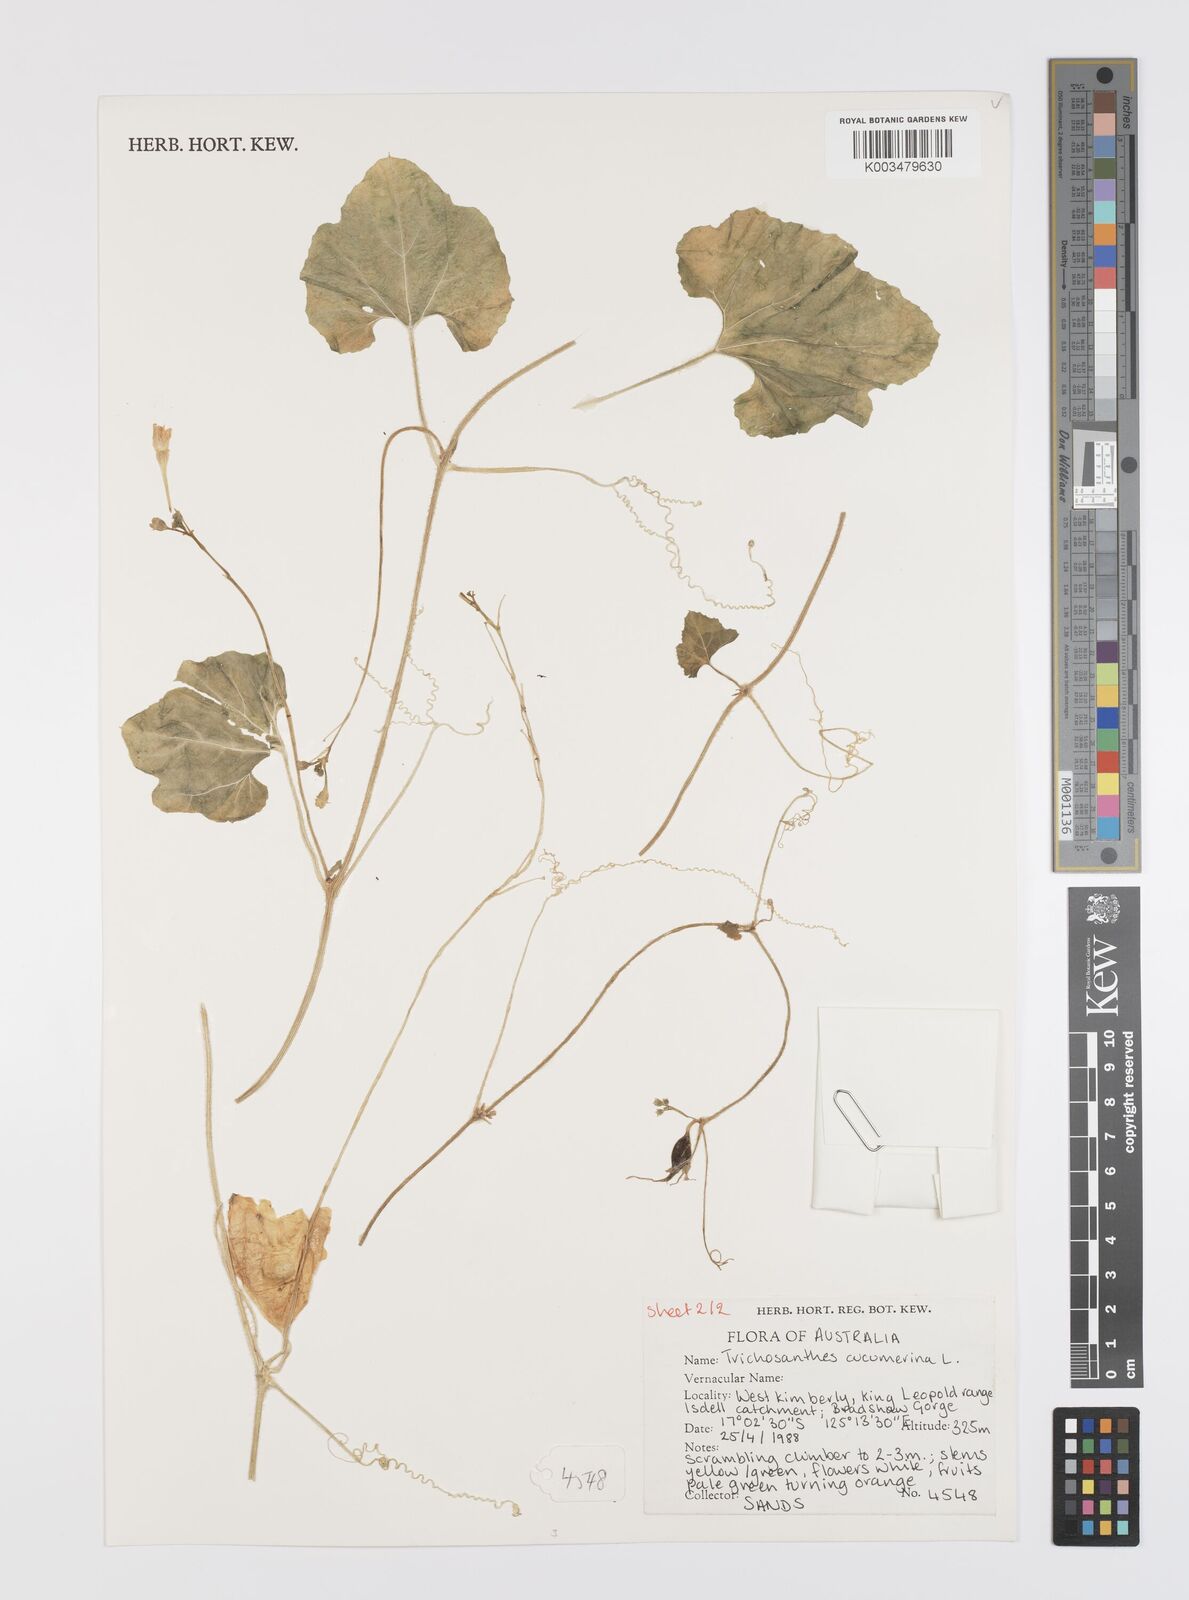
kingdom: Plantae
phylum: Tracheophyta
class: Magnoliopsida
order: Cucurbitales
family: Cucurbitaceae
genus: Trichosanthes
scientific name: Trichosanthes cucumerina
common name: Snakegourd
